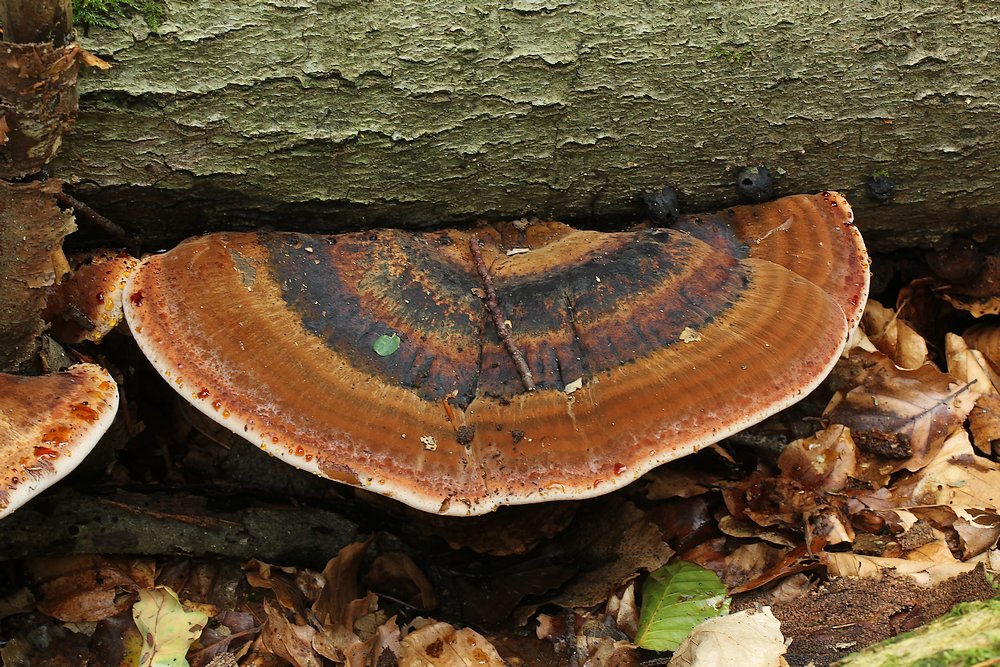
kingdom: Fungi
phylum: Basidiomycota
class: Agaricomycetes
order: Polyporales
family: Ischnodermataceae
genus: Ischnoderma
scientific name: Ischnoderma resinosum
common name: løv-tjæreporesvamp
